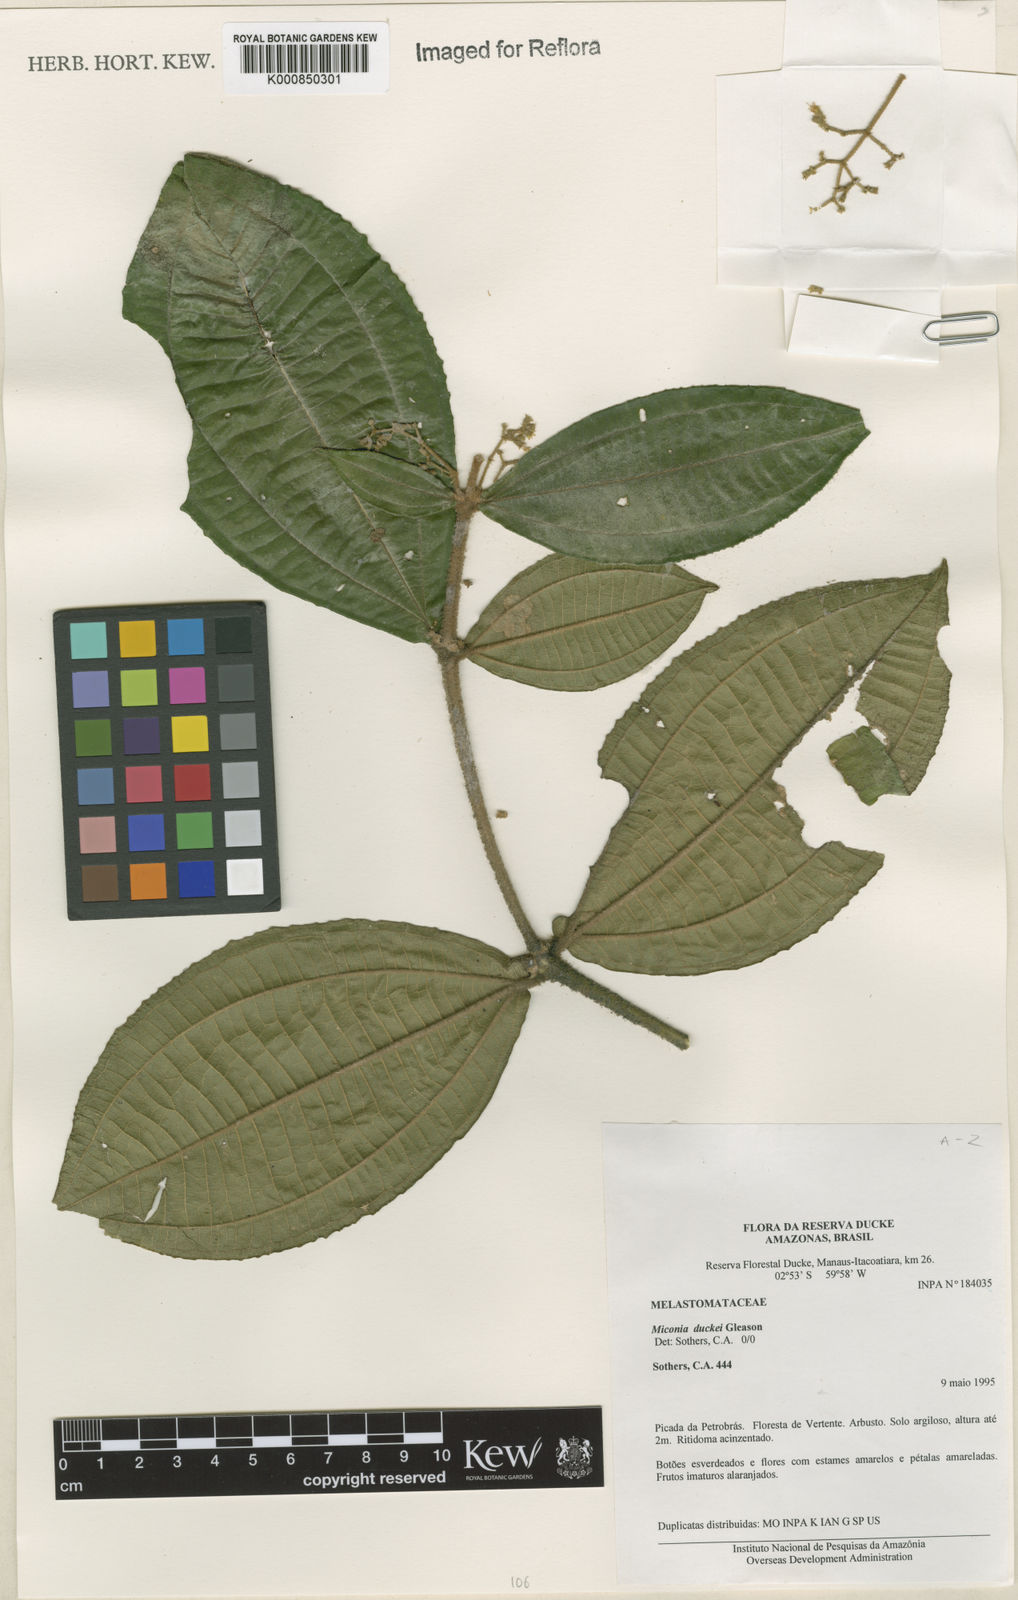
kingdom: Plantae
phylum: Tracheophyta
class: Magnoliopsida
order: Myrtales
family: Melastomataceae
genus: Miconia
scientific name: Miconia
